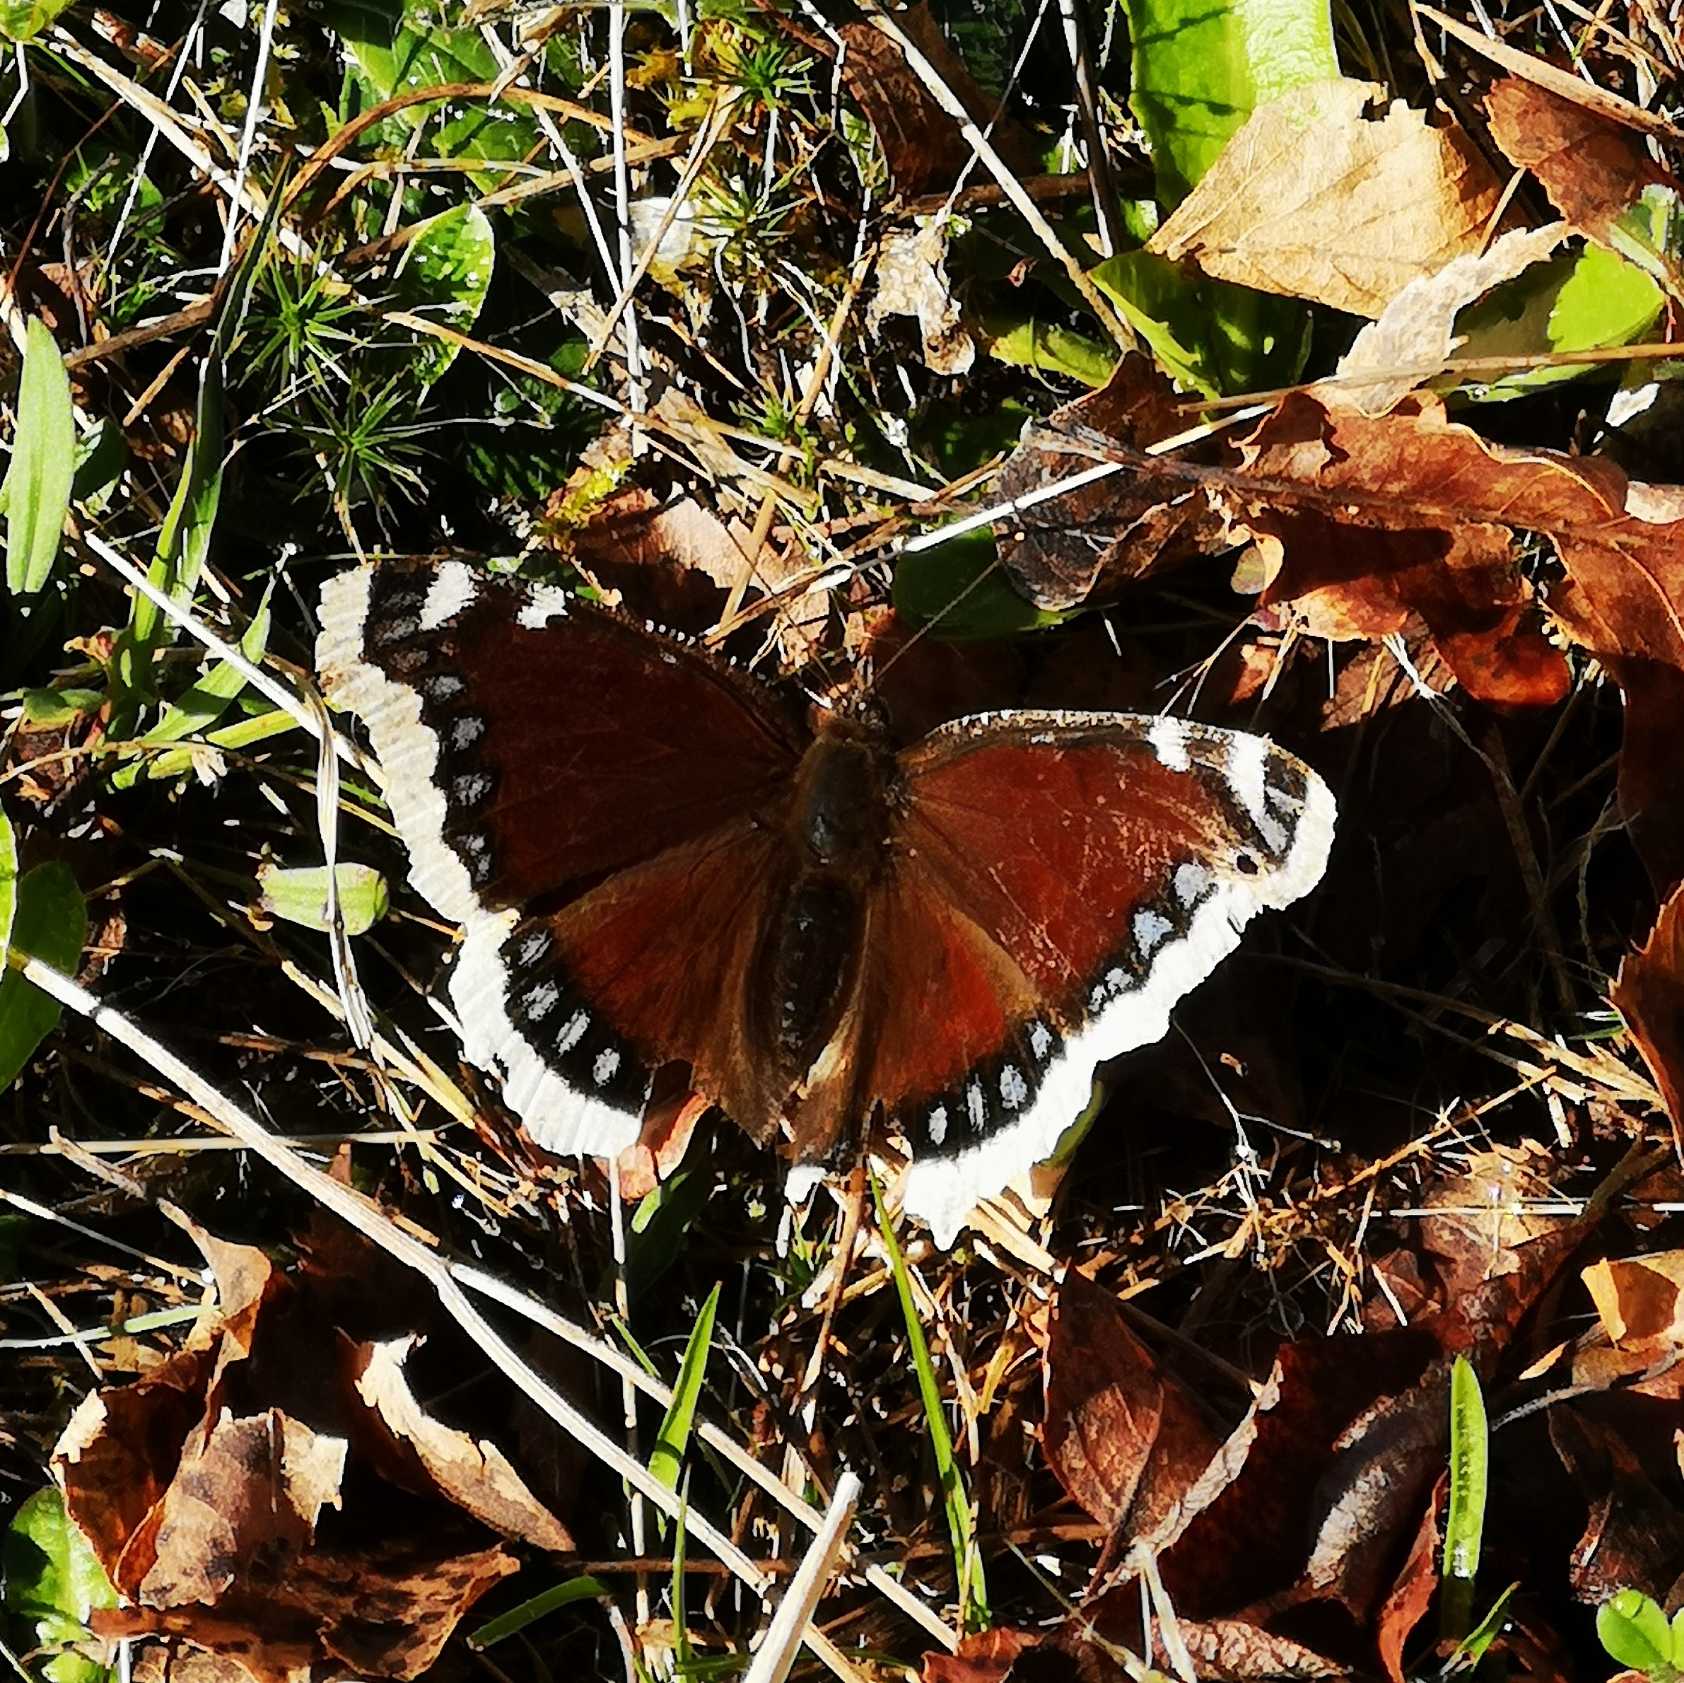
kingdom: Animalia
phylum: Arthropoda
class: Insecta
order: Lepidoptera
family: Nymphalidae
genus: Nymphalis
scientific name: Nymphalis antiopa
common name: Sørgekåbe
